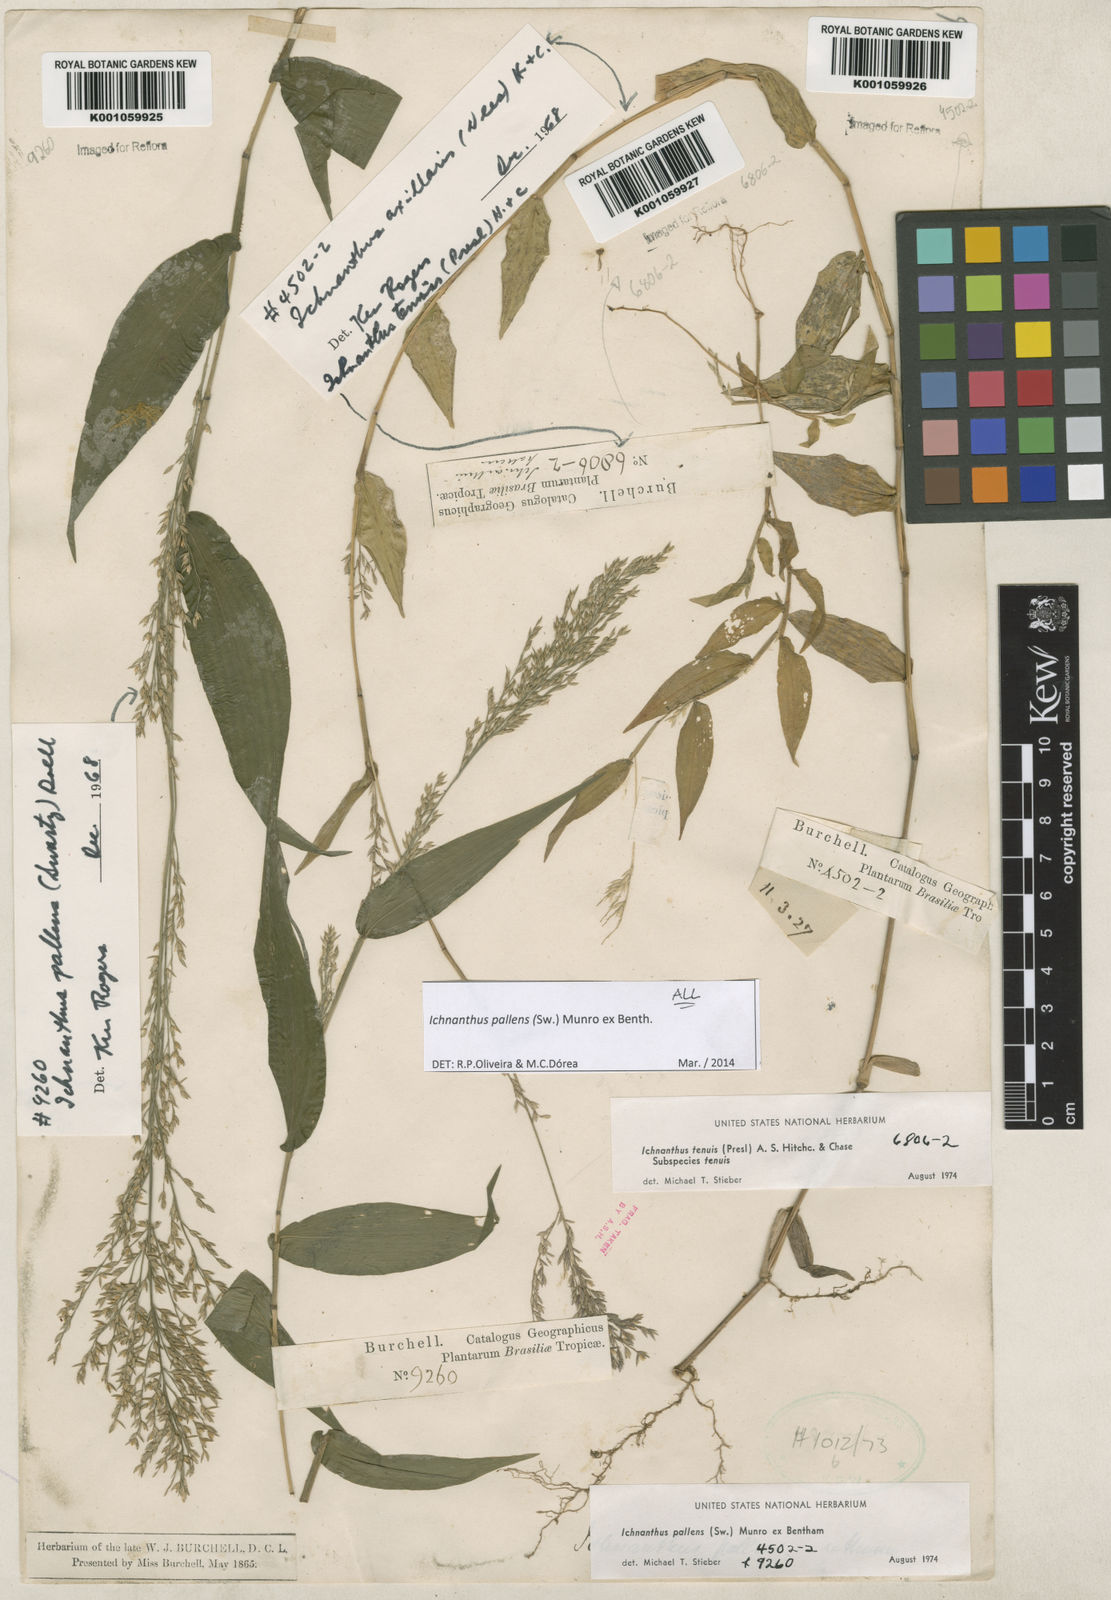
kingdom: Plantae
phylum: Tracheophyta
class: Liliopsida
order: Poales
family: Poaceae
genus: Ichnanthus
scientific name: Ichnanthus pallens
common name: Water grass
